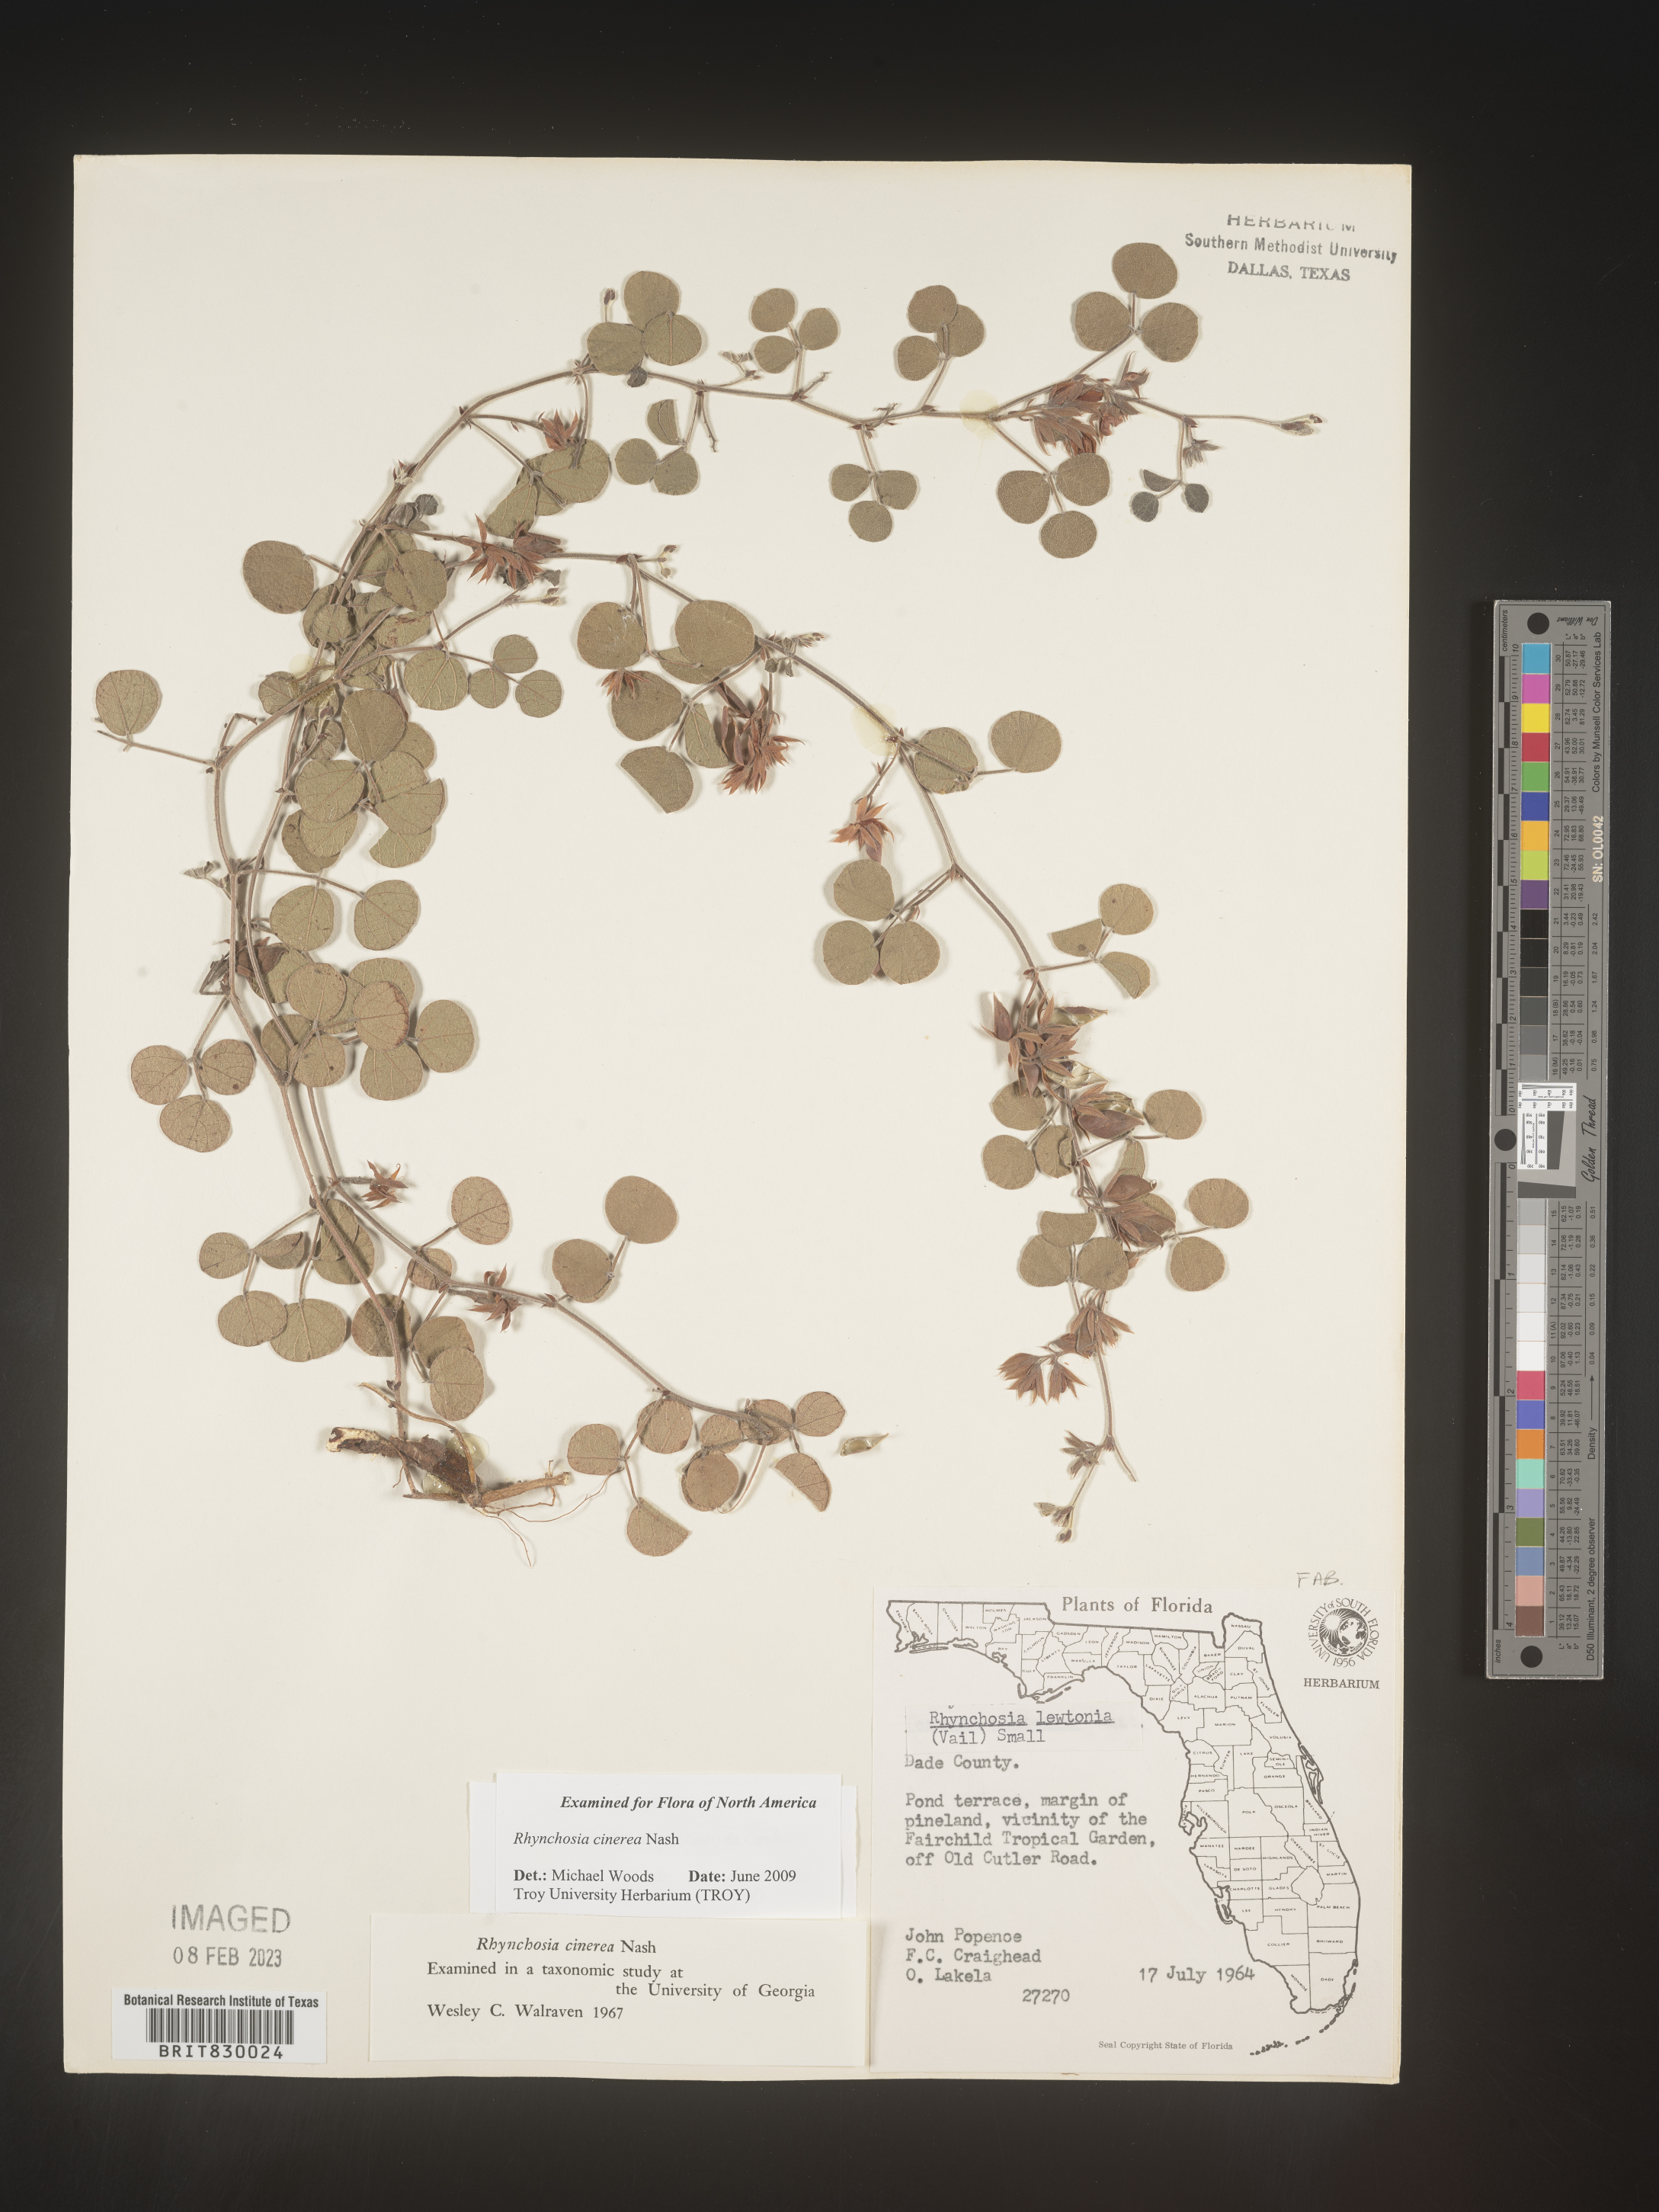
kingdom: Plantae
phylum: Tracheophyta
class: Magnoliopsida
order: Fabales
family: Fabaceae
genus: Rhynchosia
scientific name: Rhynchosia
